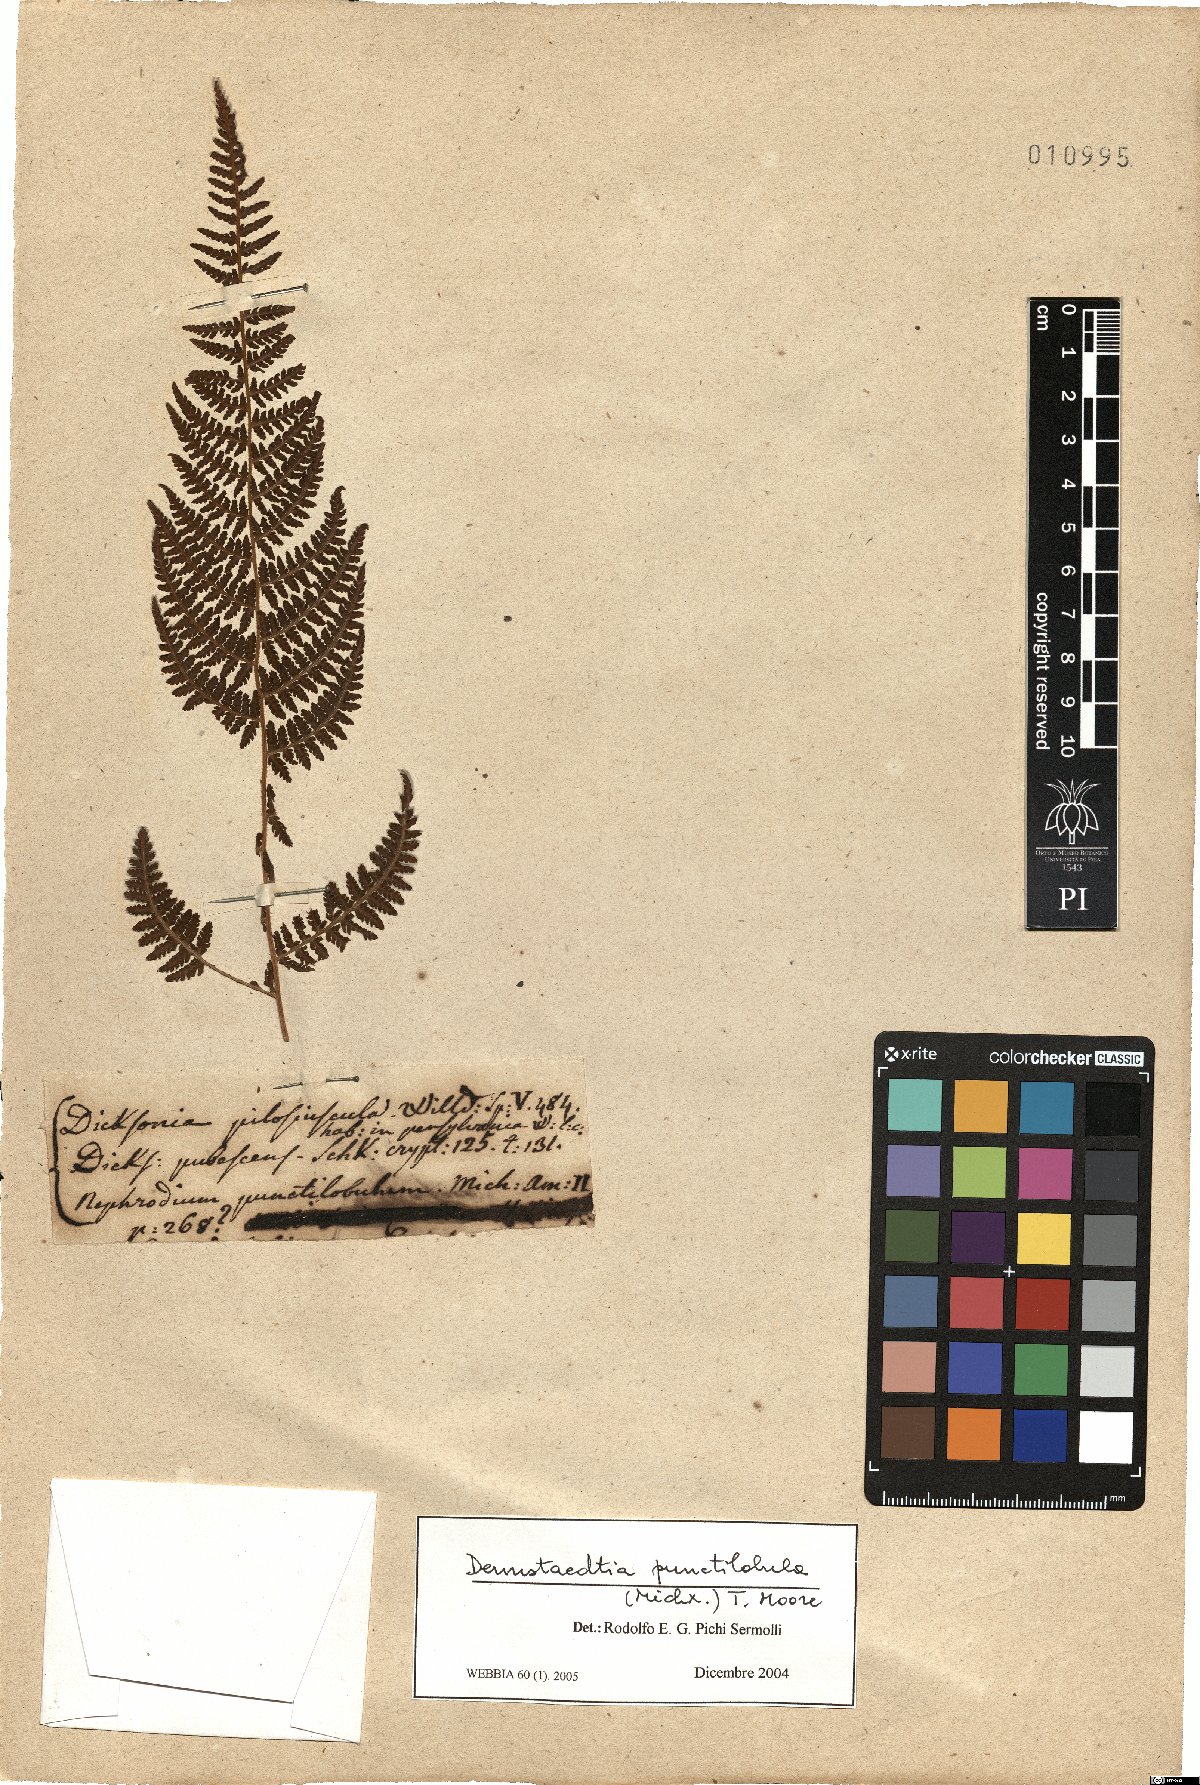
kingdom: Plantae
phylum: Tracheophyta
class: Polypodiopsida
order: Polypodiales
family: Dennstaedtiaceae
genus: Mucura
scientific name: Mucura globulifera
